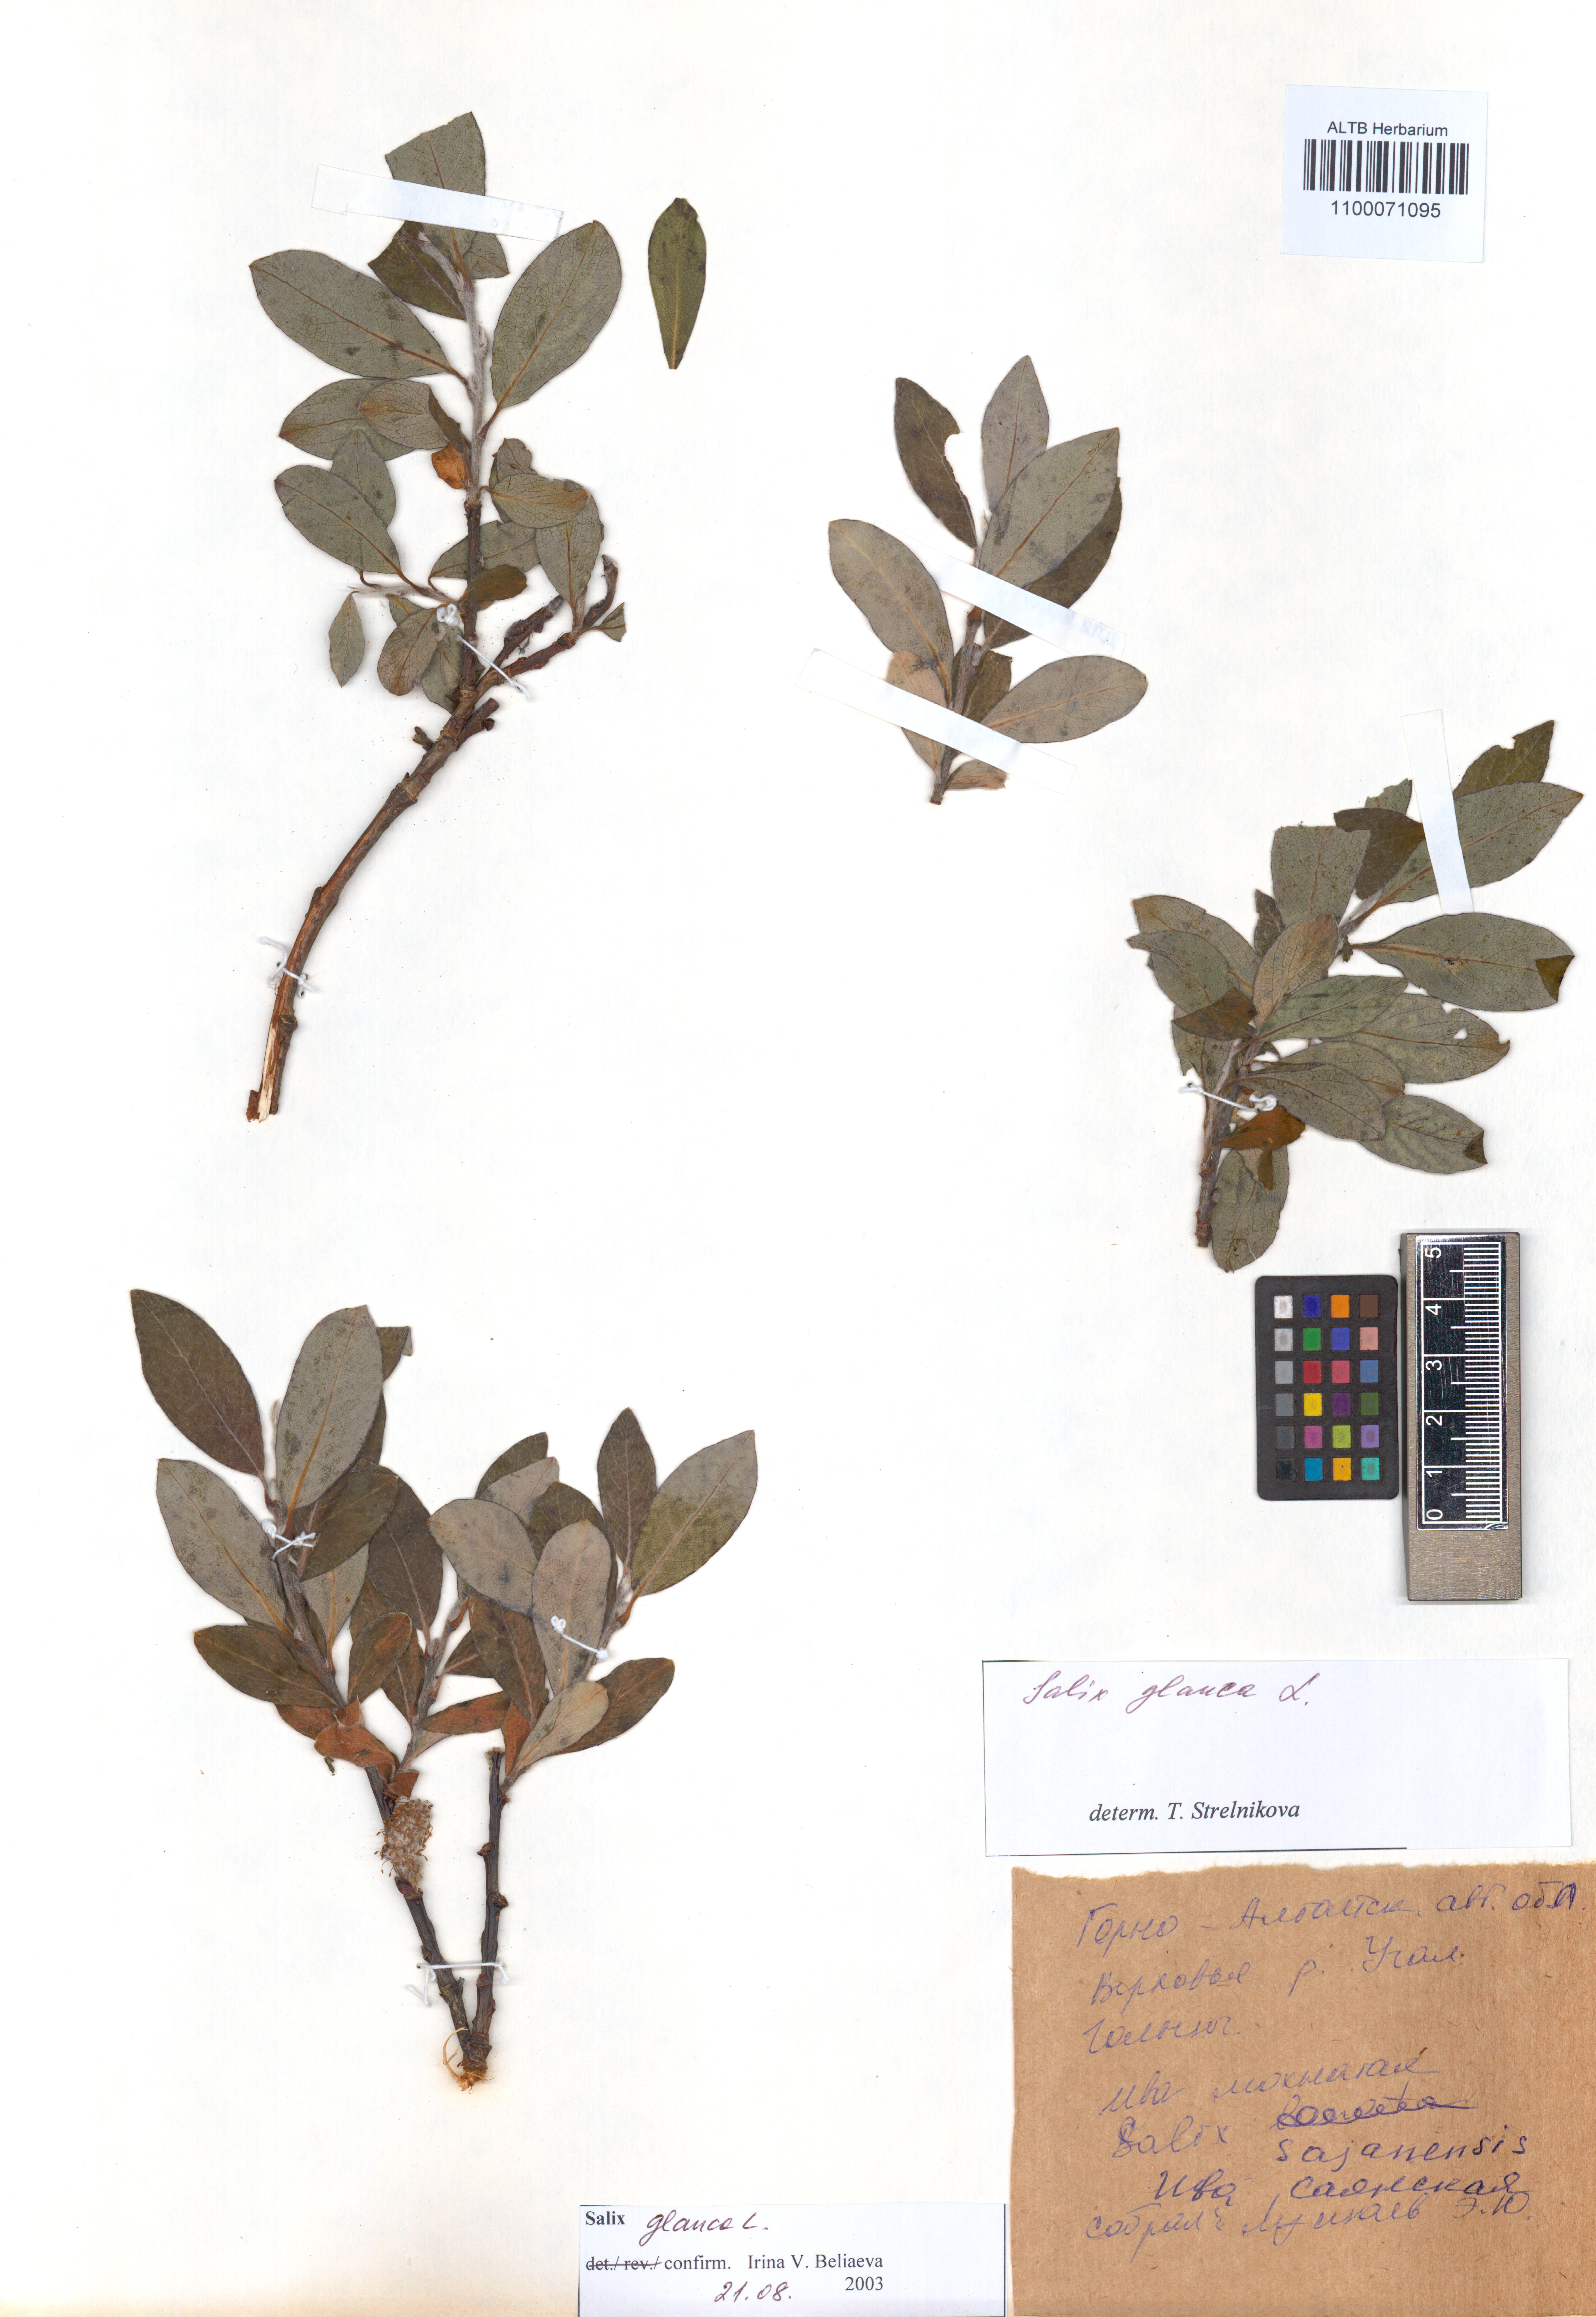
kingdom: Plantae
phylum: Tracheophyta
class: Magnoliopsida
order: Malpighiales
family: Salicaceae
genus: Salix
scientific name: Salix glauca
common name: Glaucous willow
